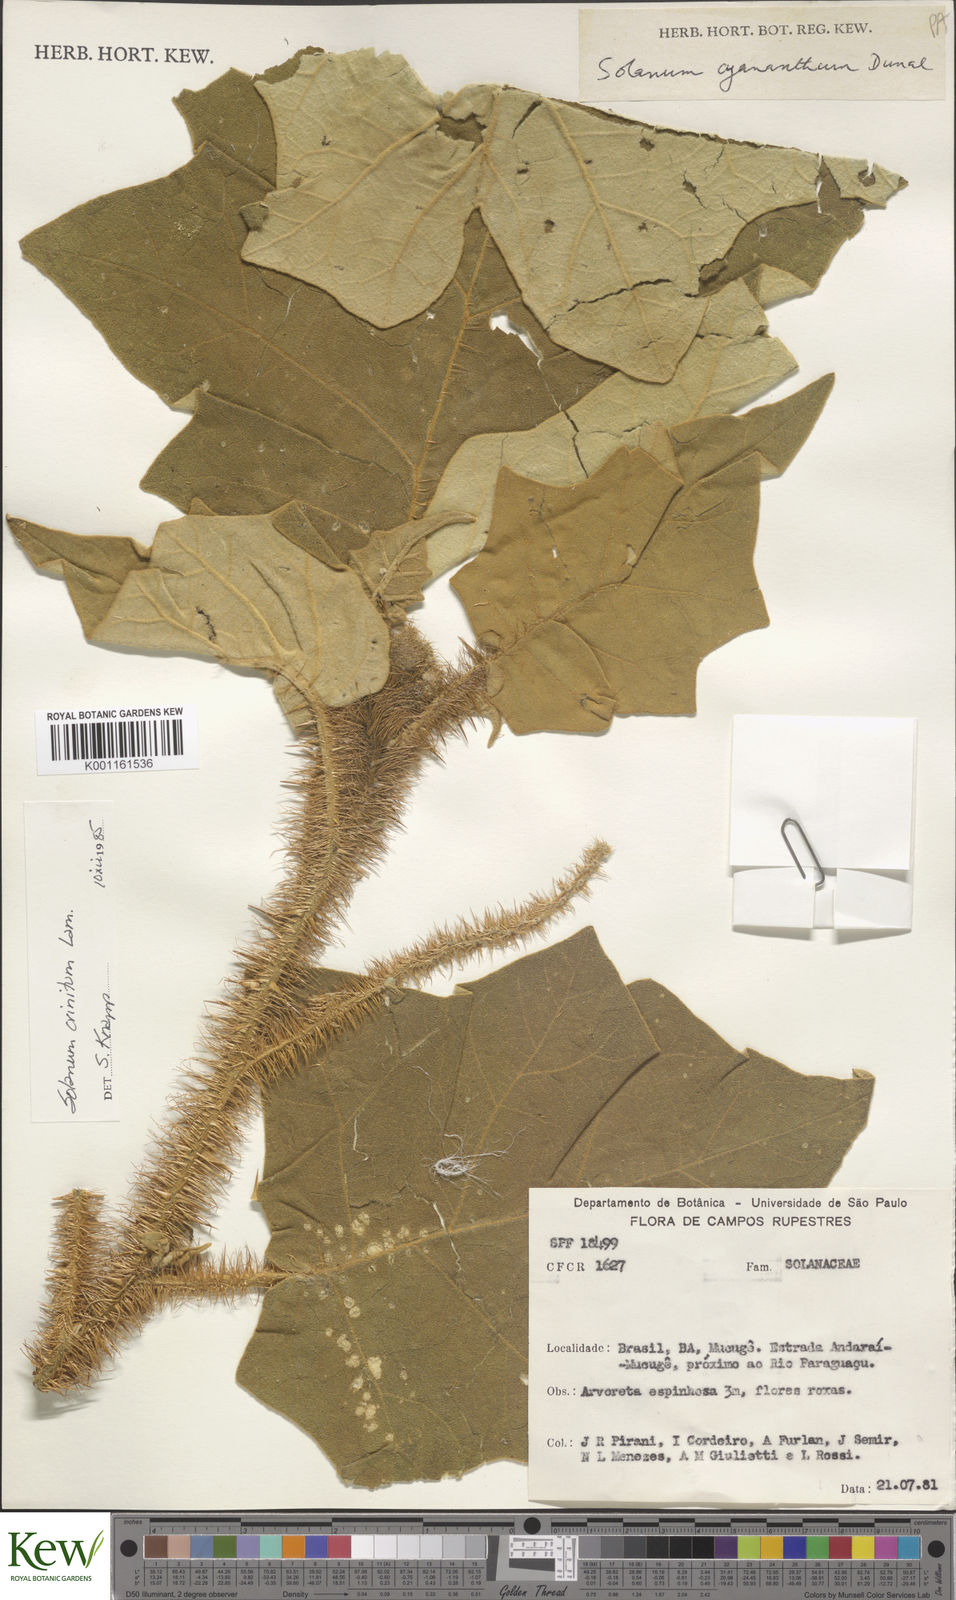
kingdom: Plantae
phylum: Tracheophyta
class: Magnoliopsida
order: Solanales
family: Solanaceae
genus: Solanum
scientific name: Solanum crinitum
